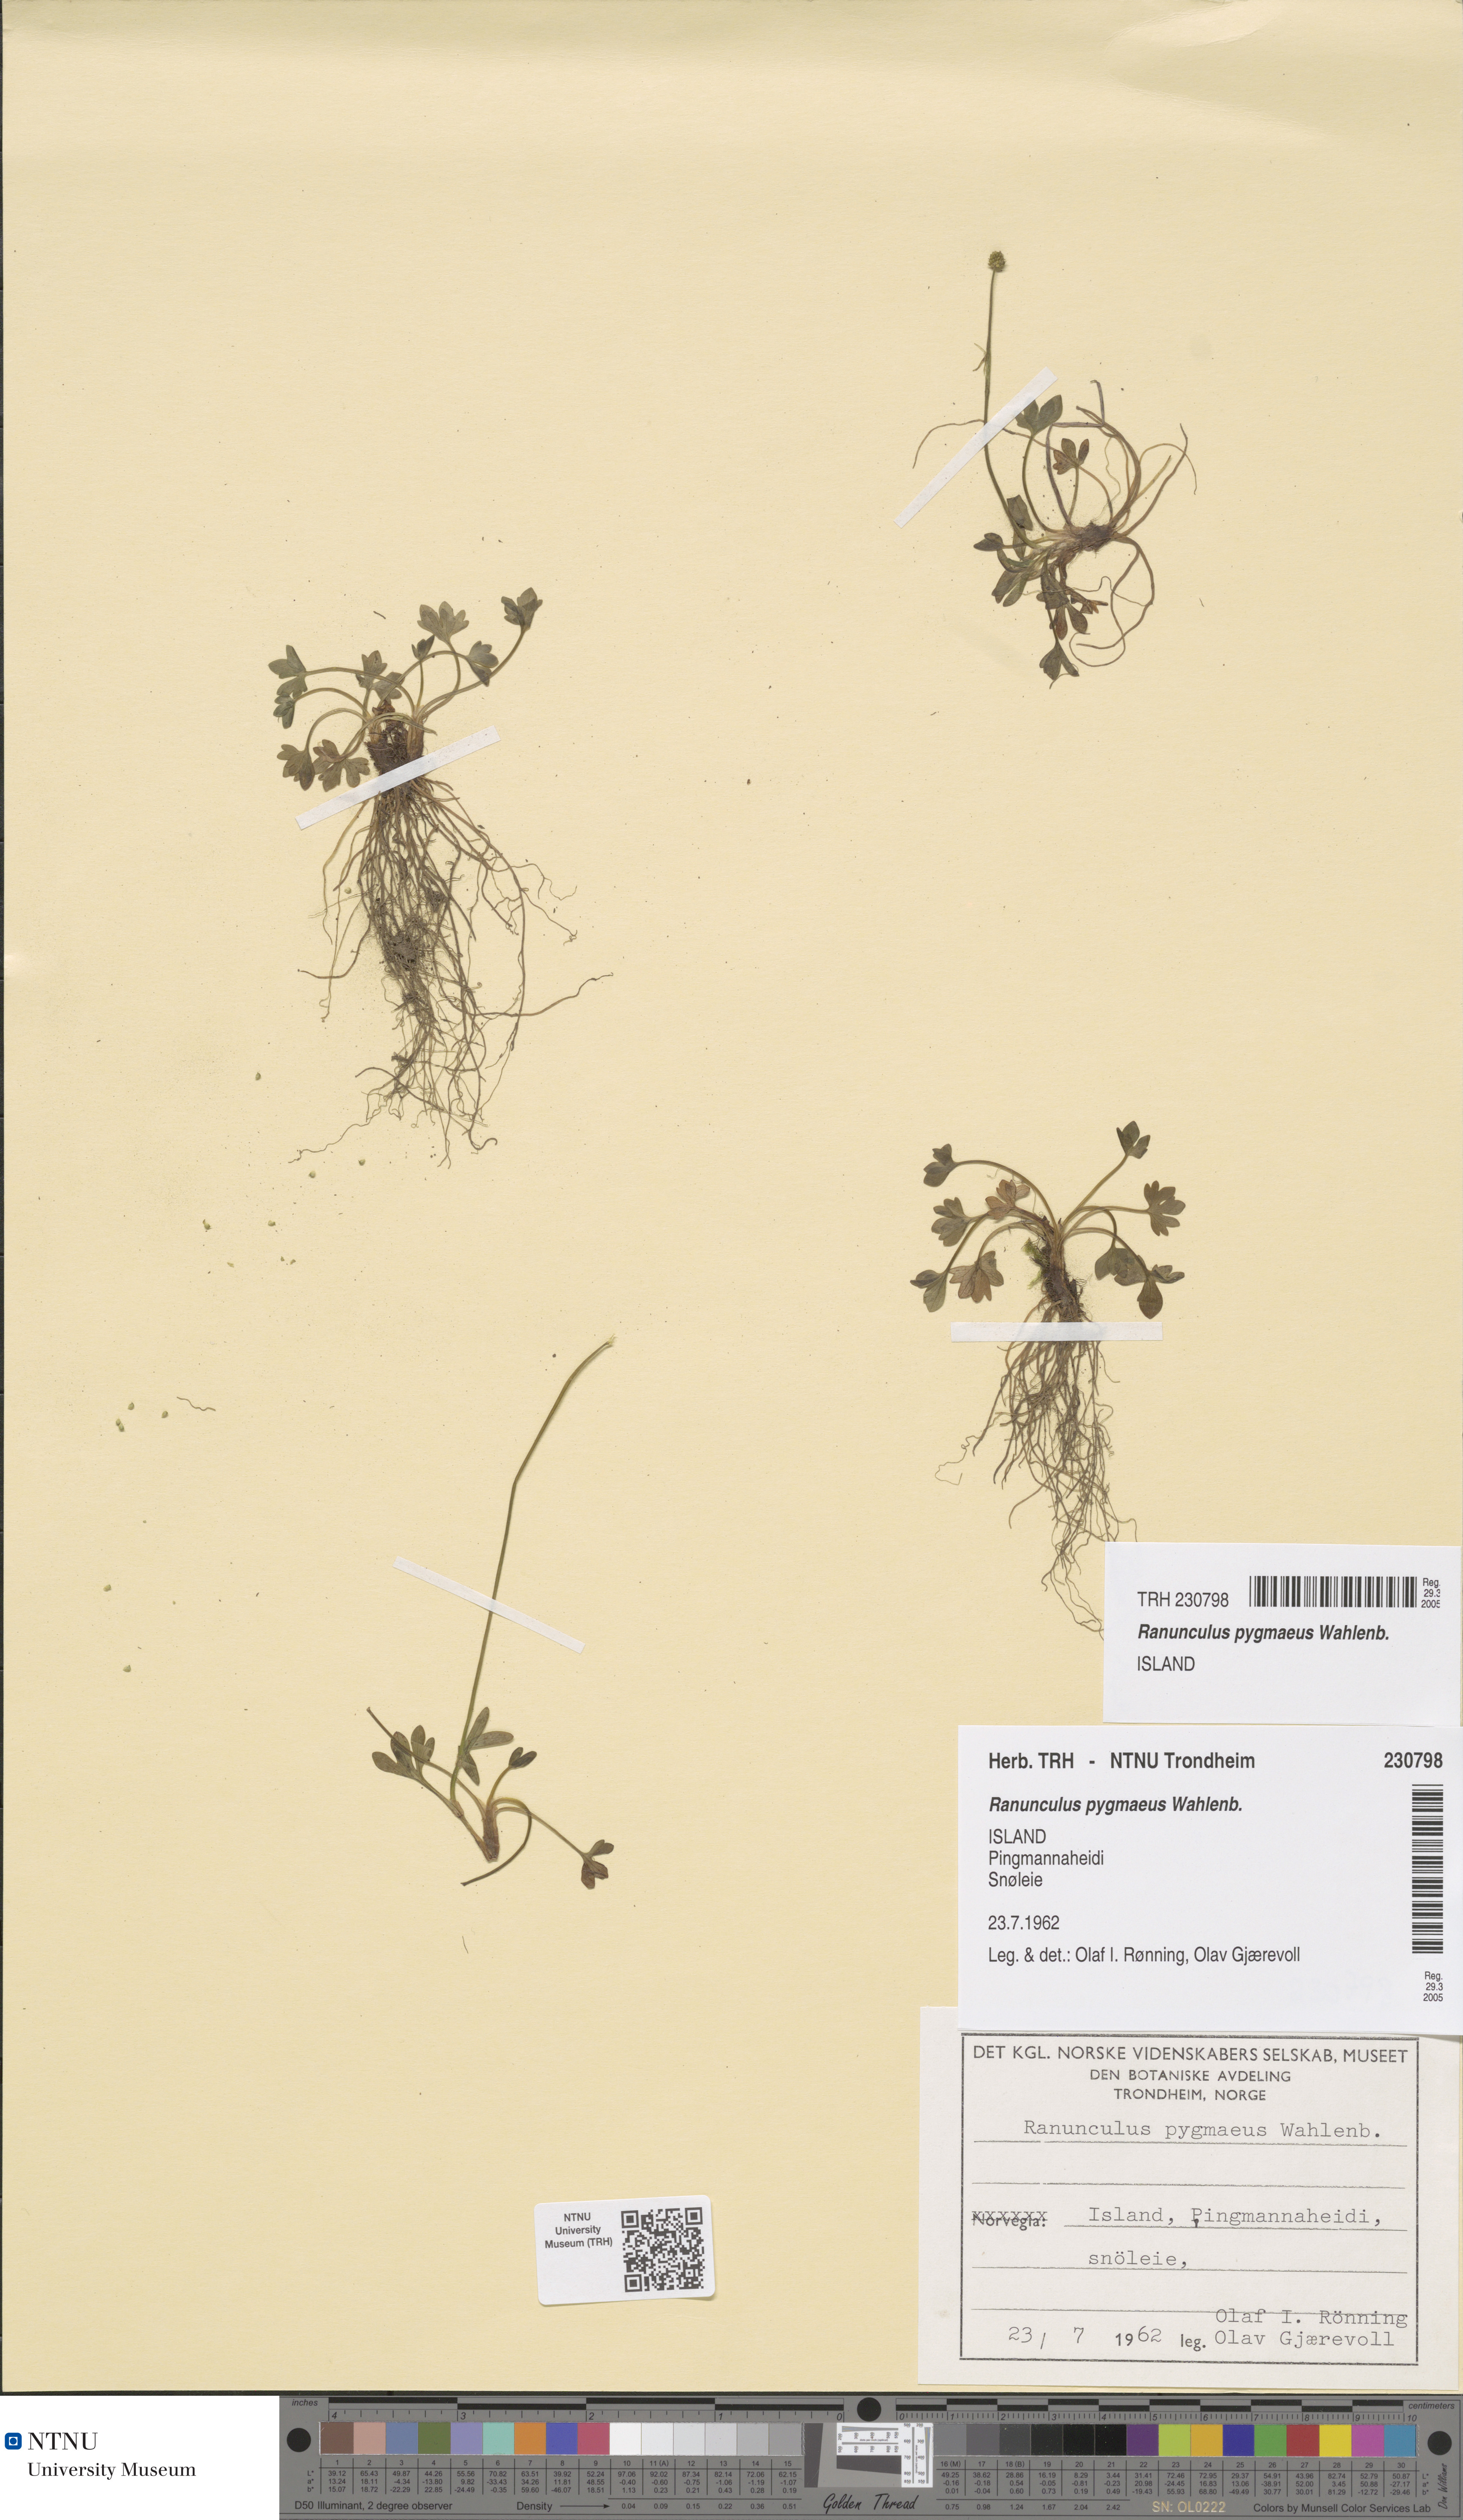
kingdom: Plantae
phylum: Tracheophyta
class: Magnoliopsida
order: Ranunculales
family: Ranunculaceae
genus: Ranunculus
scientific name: Ranunculus pygmaeus
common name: Dwarf buttercup
